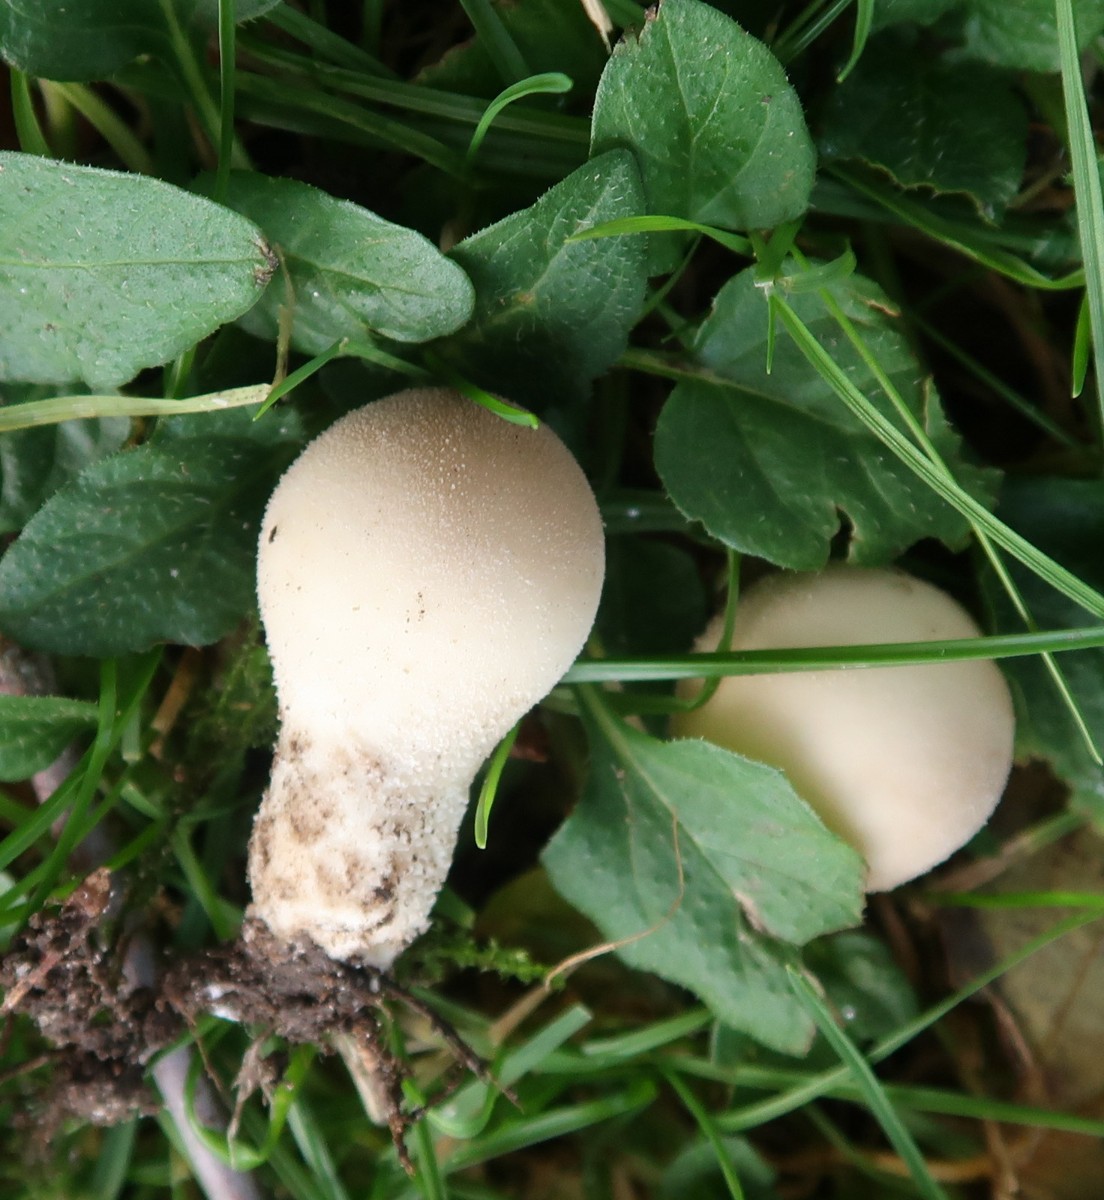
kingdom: Fungi
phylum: Basidiomycota
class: Agaricomycetes
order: Agaricales
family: Lycoperdaceae
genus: Apioperdon
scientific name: Apioperdon pyriforme
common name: pære-støvbold
